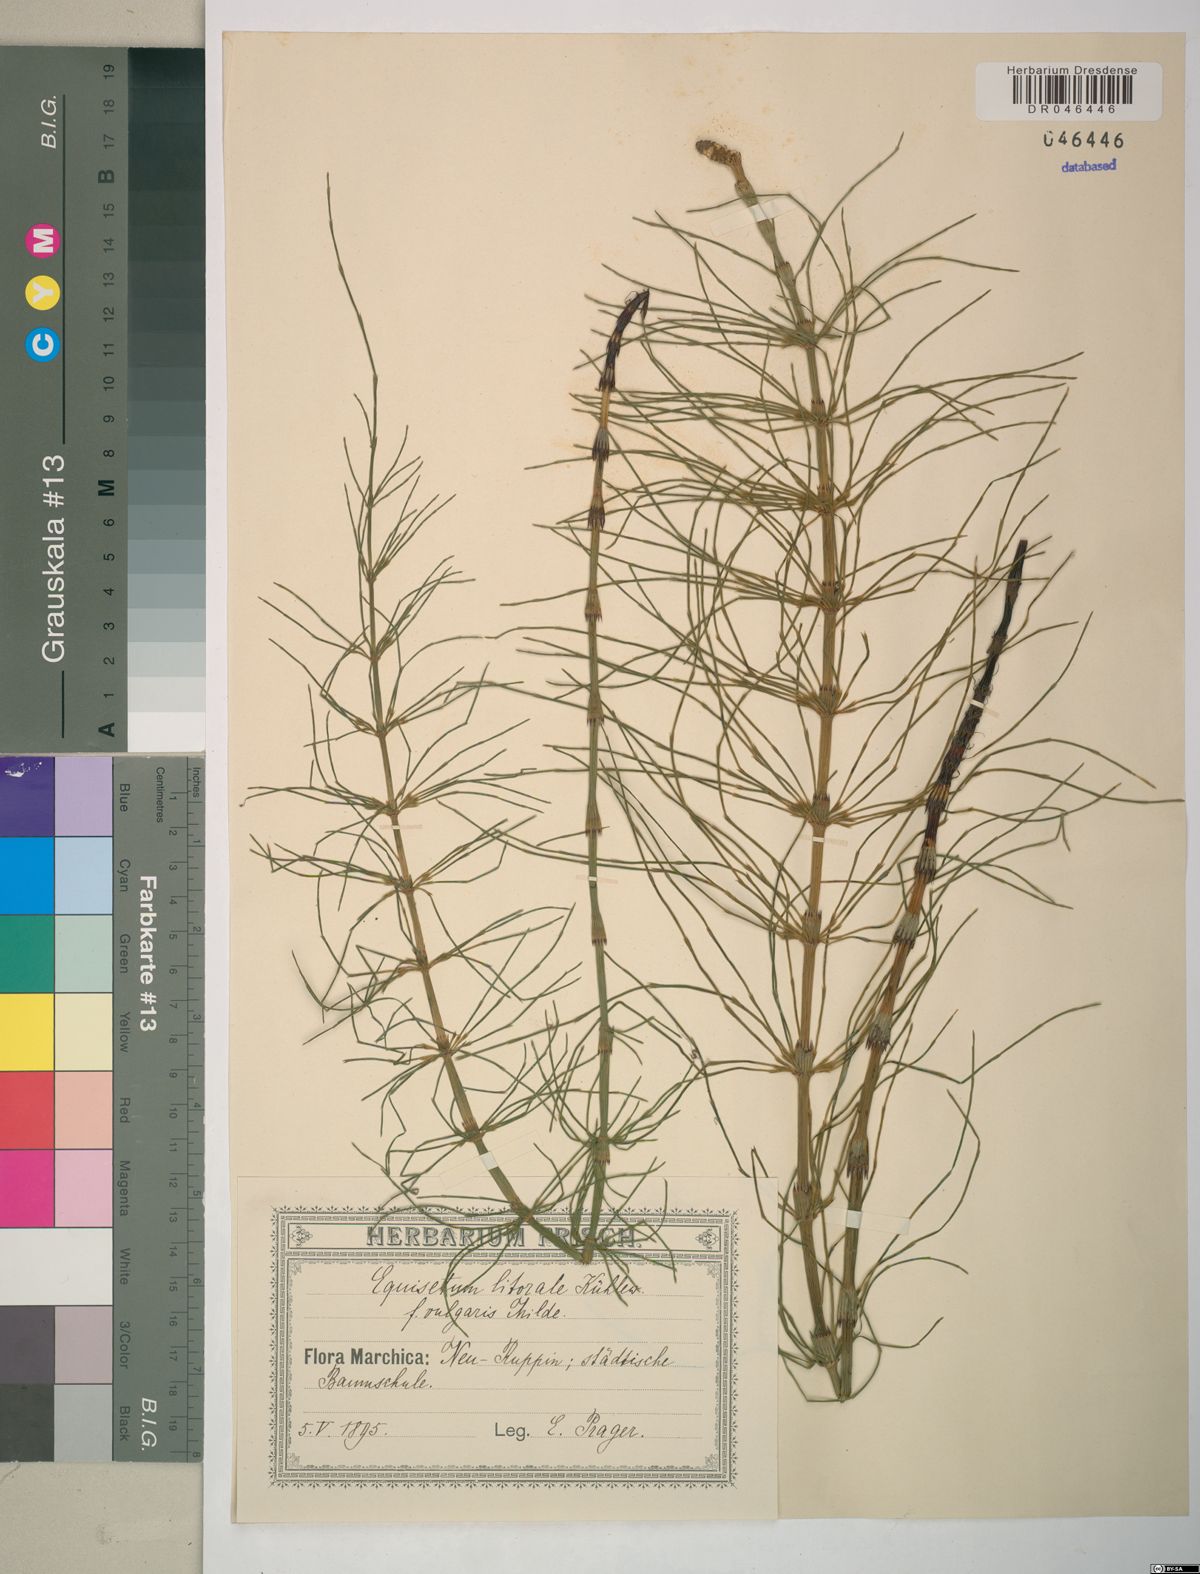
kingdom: Plantae
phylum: Tracheophyta
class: Polypodiopsida
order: Equisetales
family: Equisetaceae
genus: Equisetum
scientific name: Equisetum litorale
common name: Littoral horsetail
